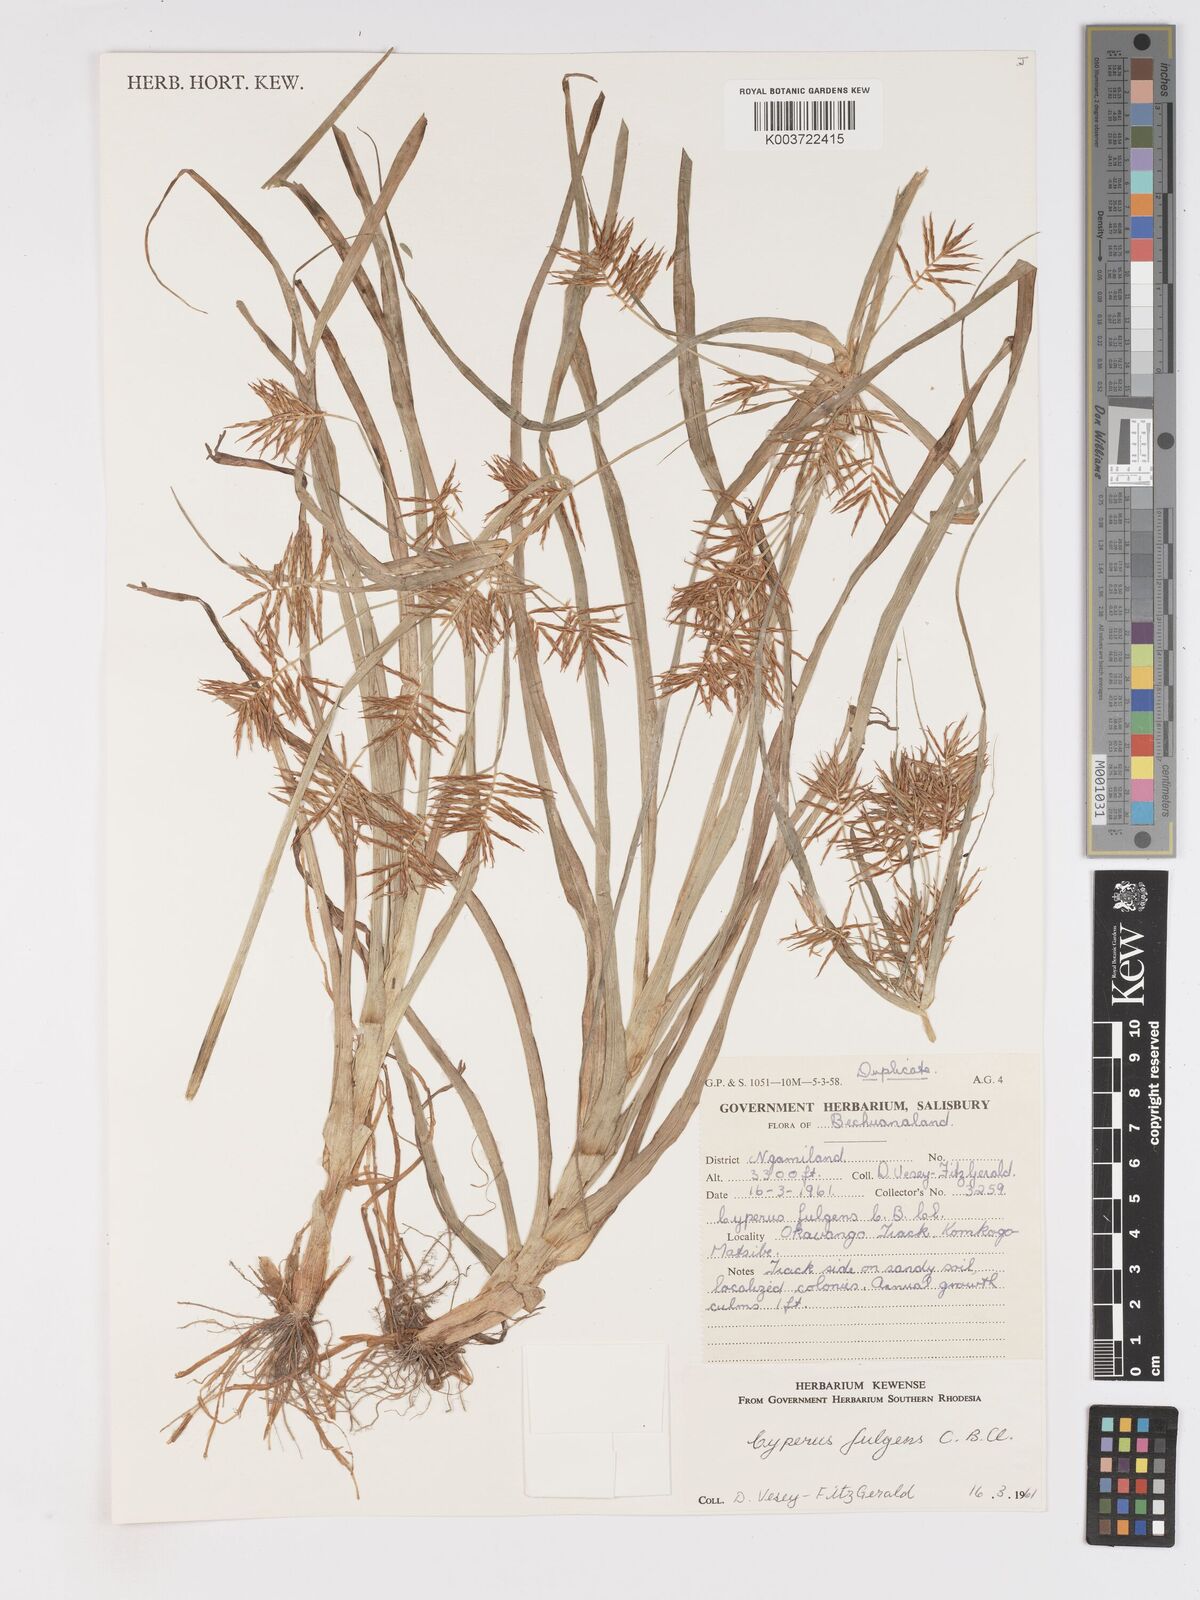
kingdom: Plantae
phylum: Tracheophyta
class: Liliopsida
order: Poales
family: Cyperaceae
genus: Cyperus
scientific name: Cyperus callistus
